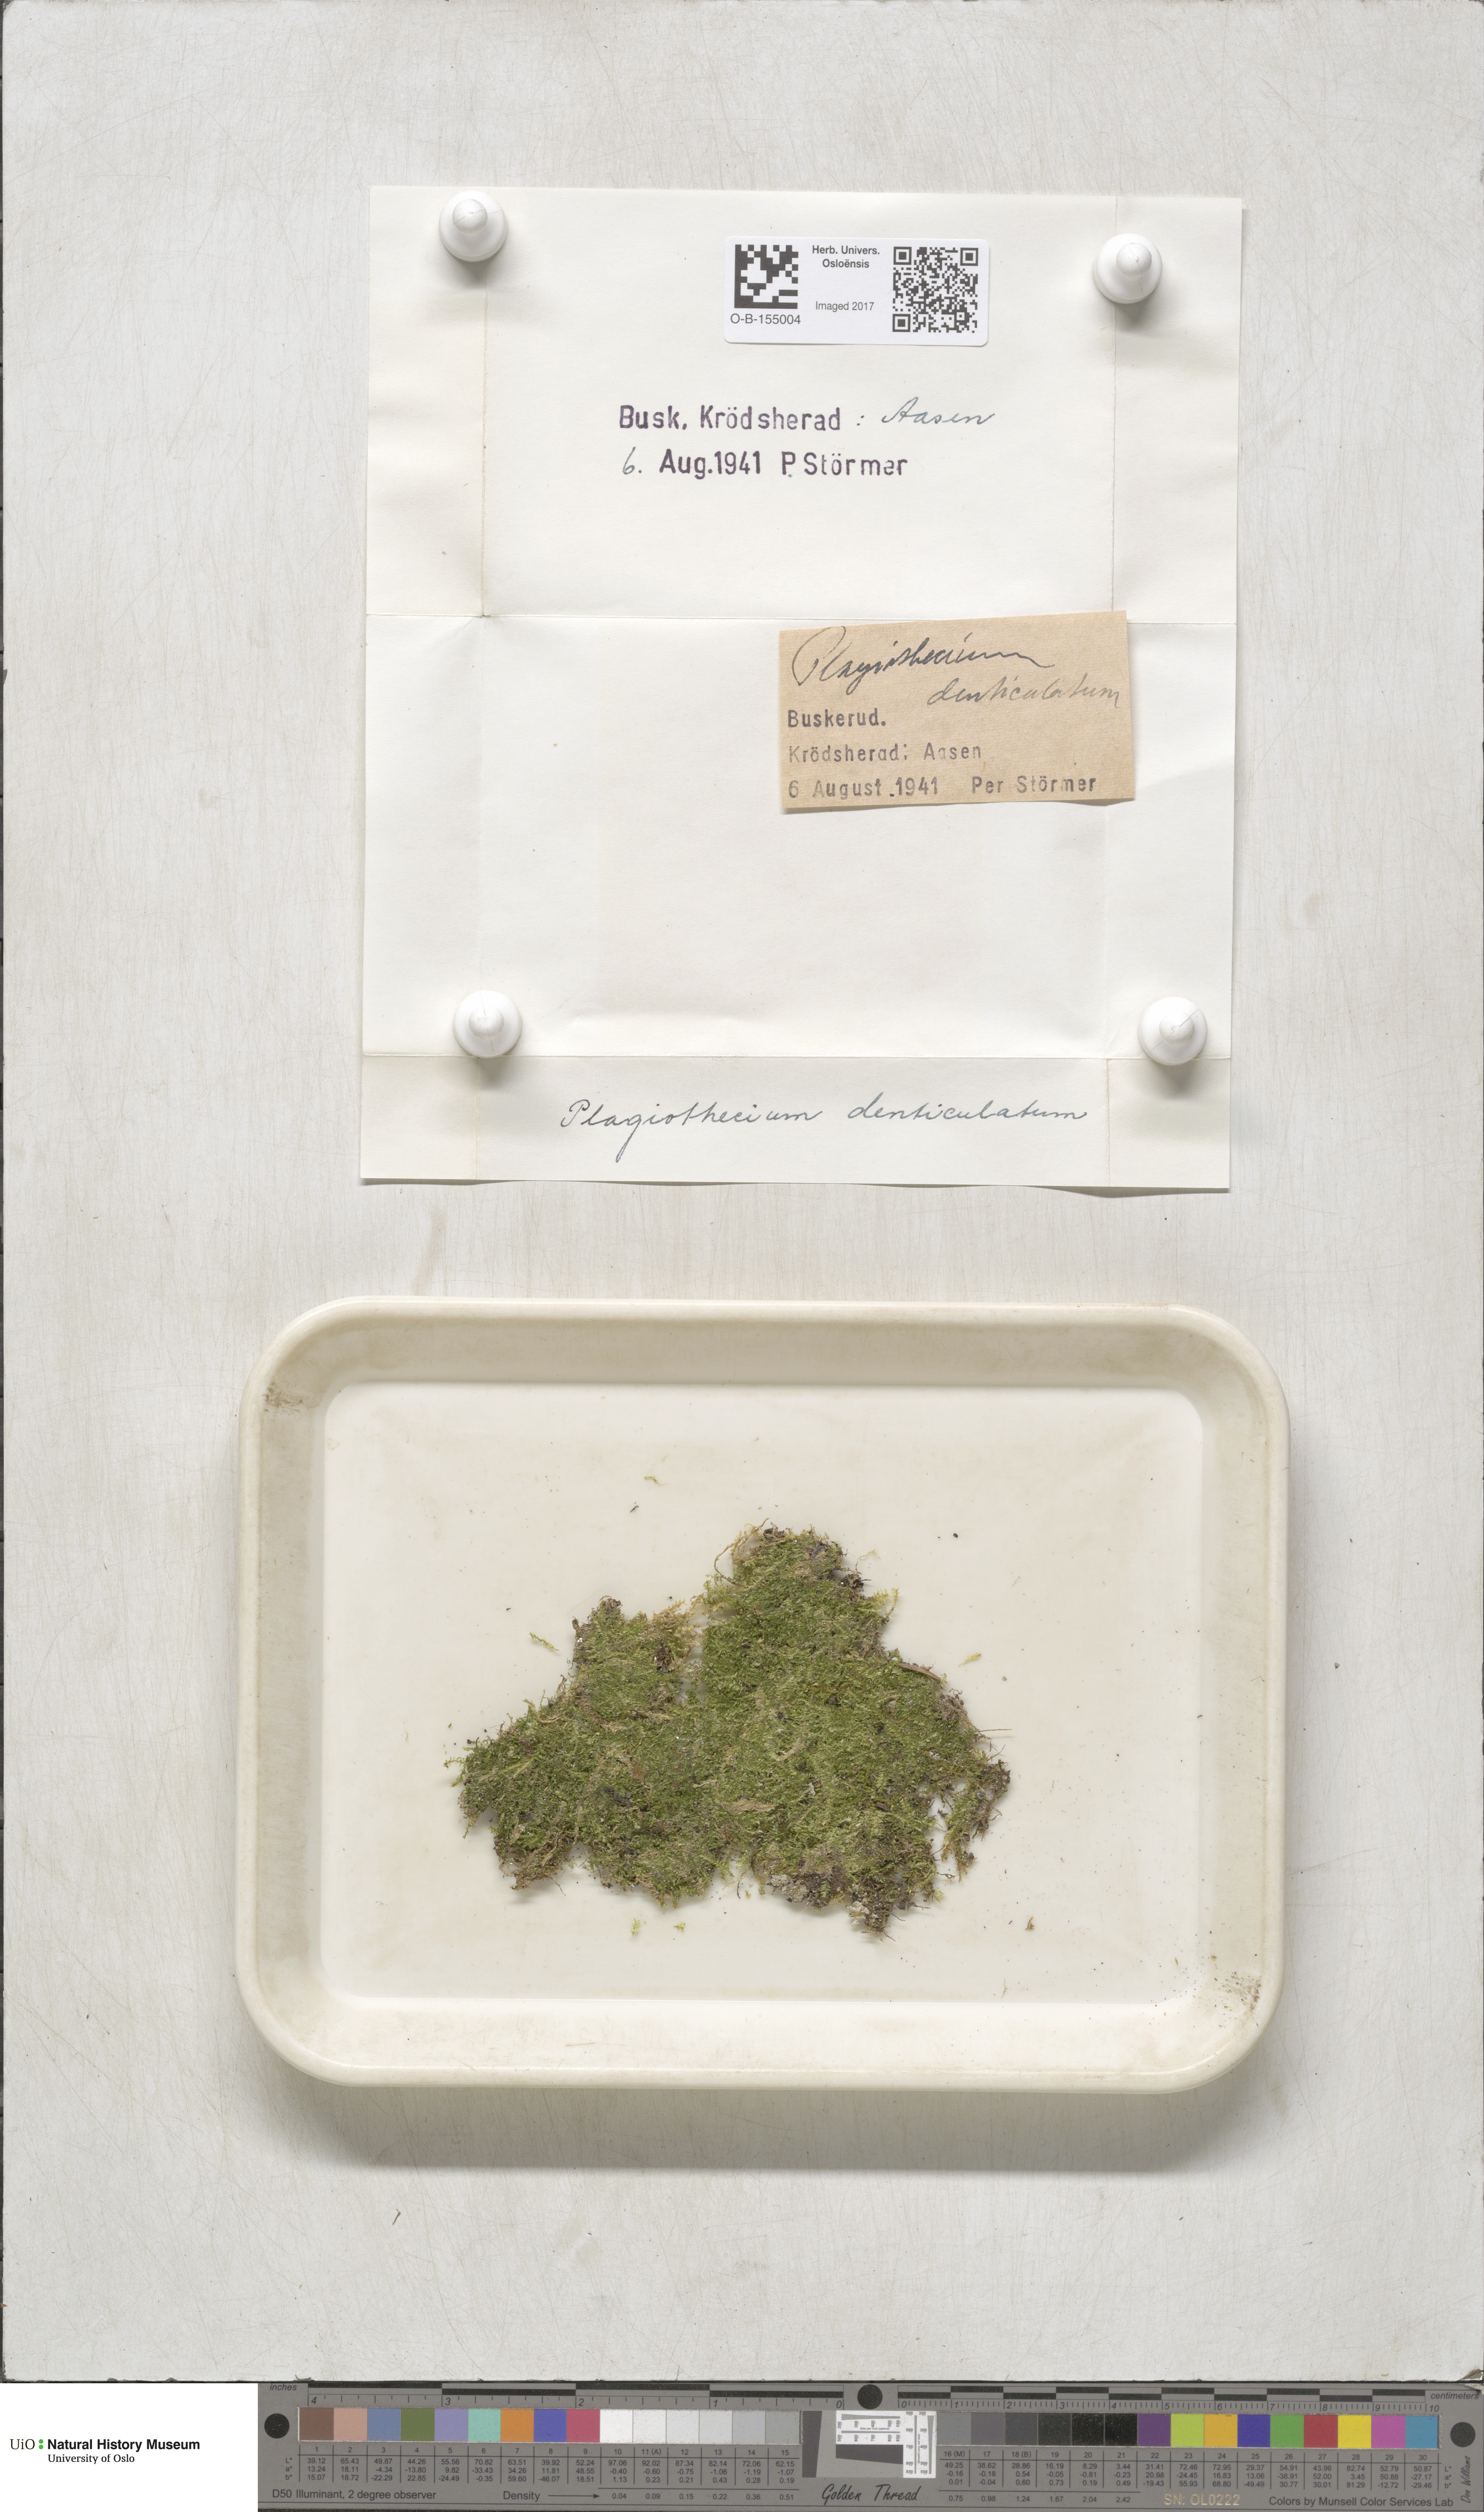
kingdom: Plantae
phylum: Bryophyta
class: Bryopsida
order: Hypnales
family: Plagiotheciaceae
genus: Plagiothecium
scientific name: Plagiothecium denticulatum
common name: Dented silk moss
